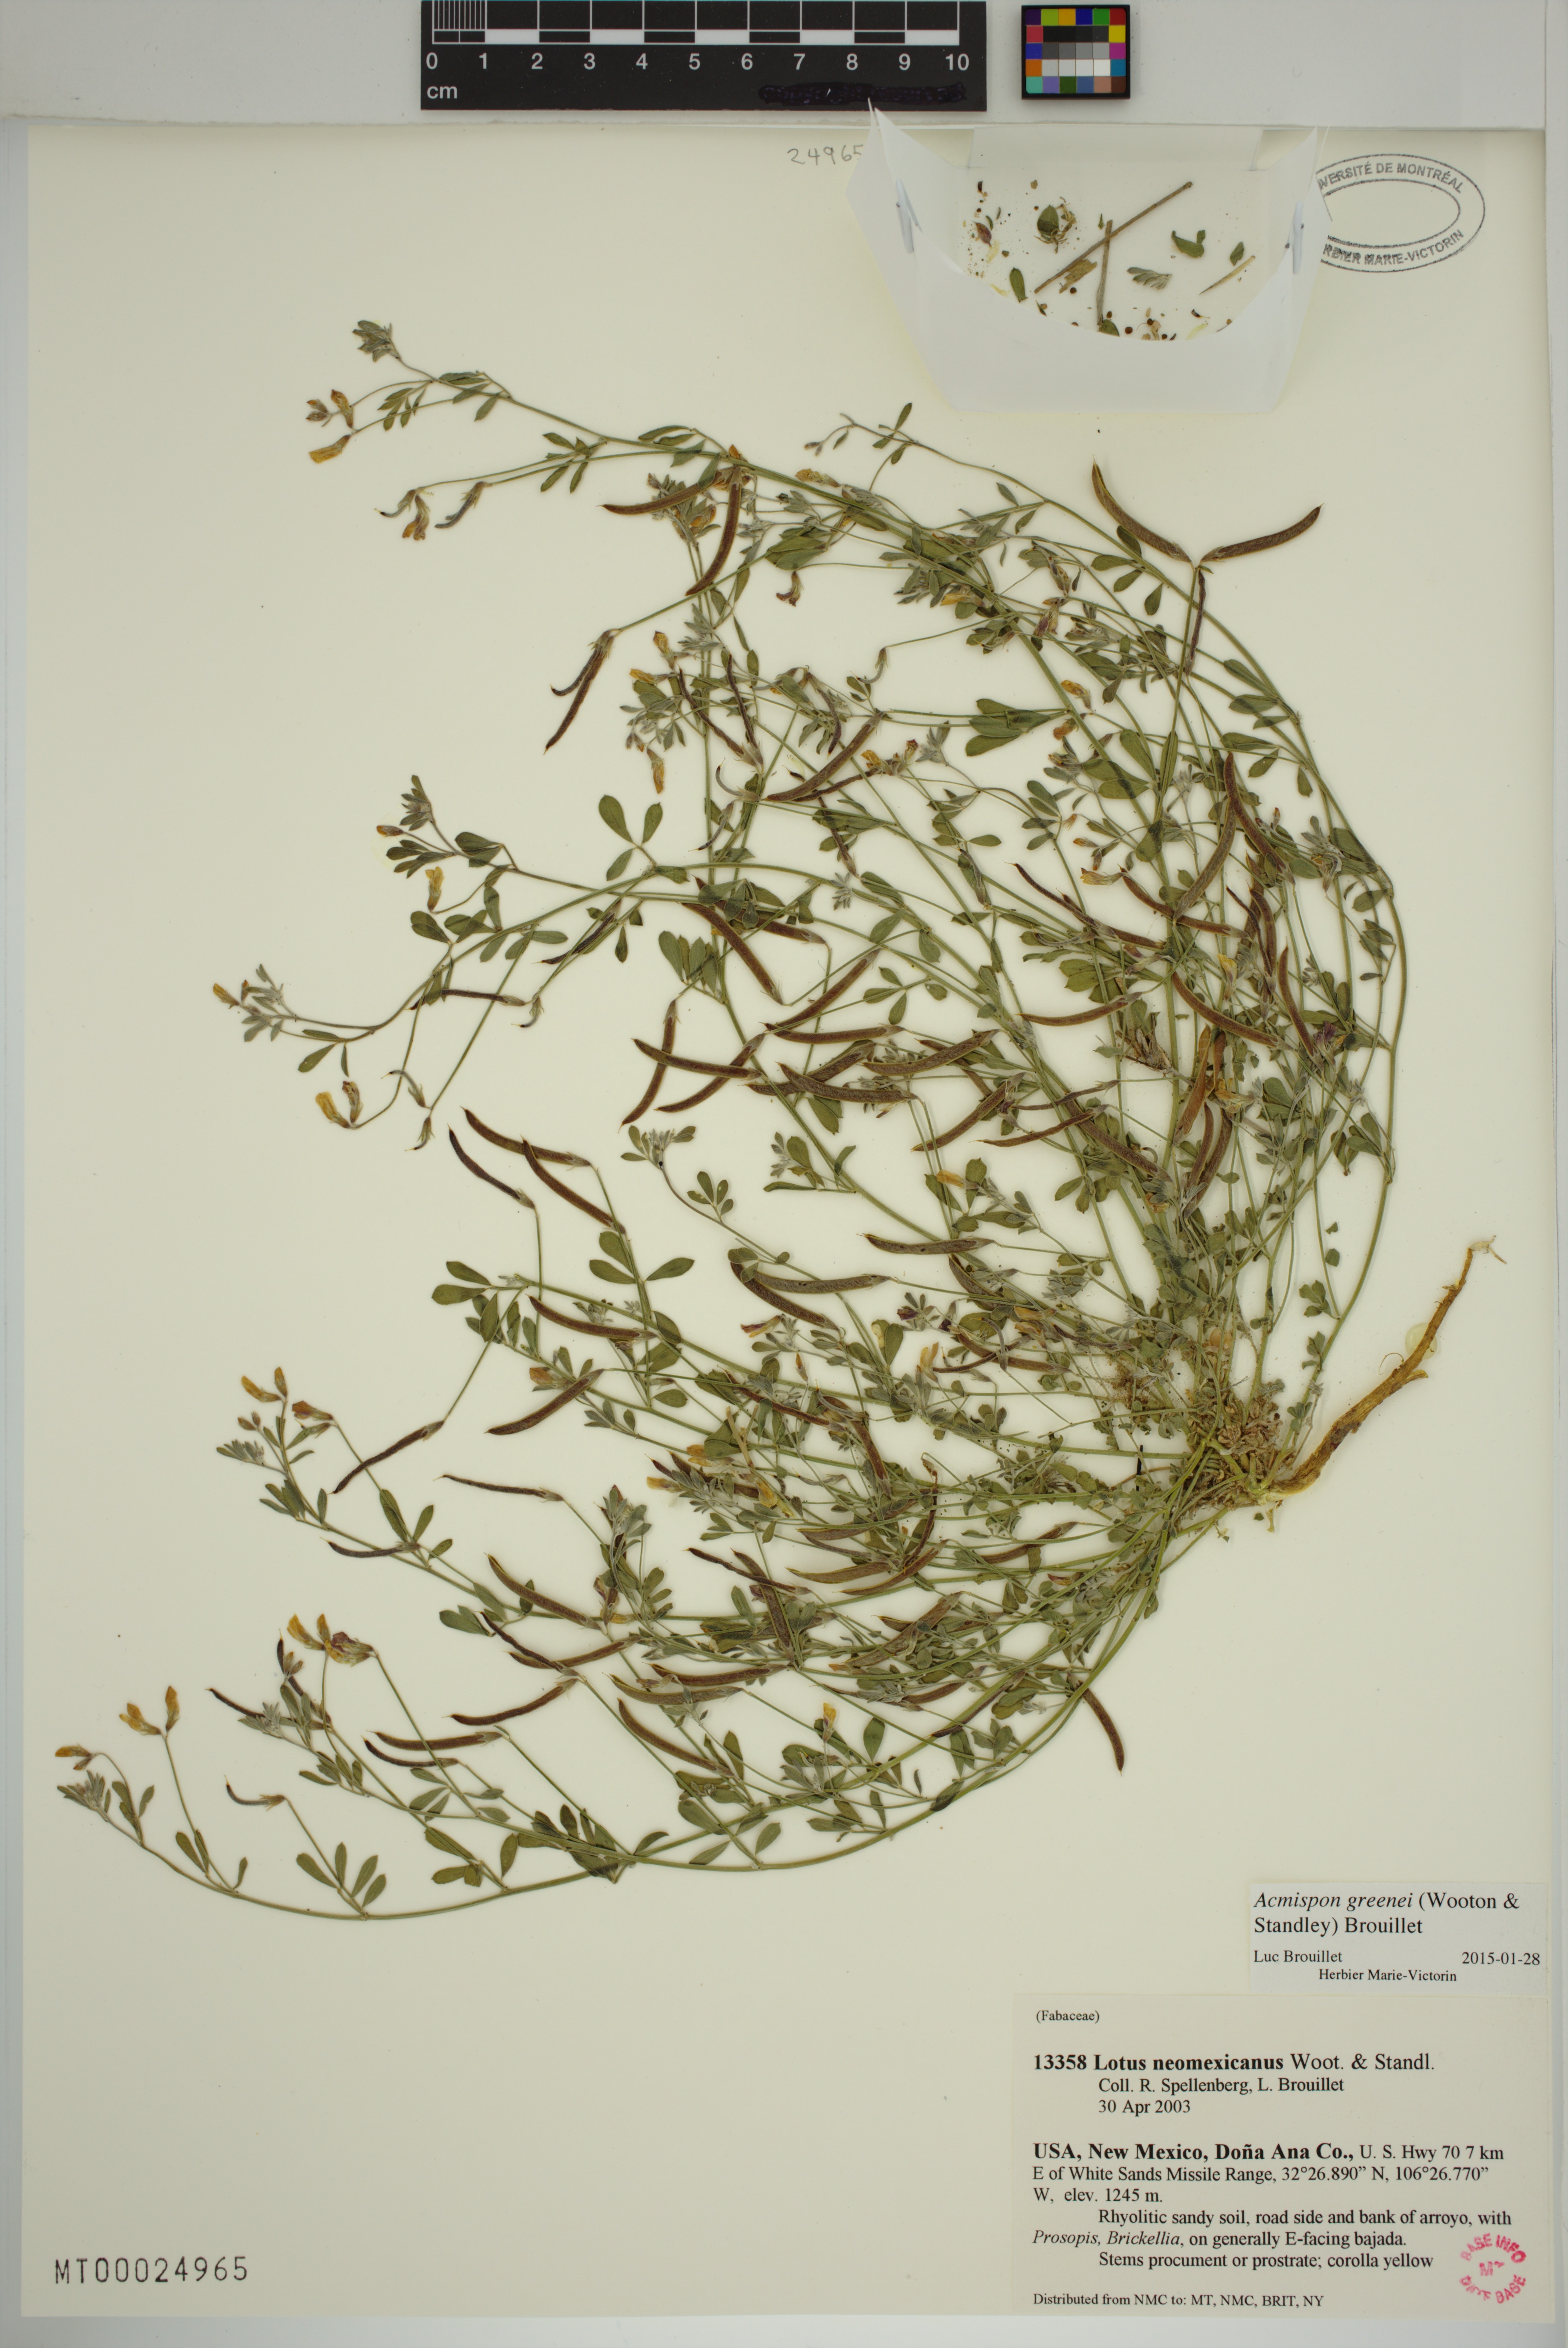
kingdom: Plantae
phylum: Tracheophyta
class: Magnoliopsida
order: Fabales
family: Fabaceae
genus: Acmispon
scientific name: Acmispon neomexicanus
